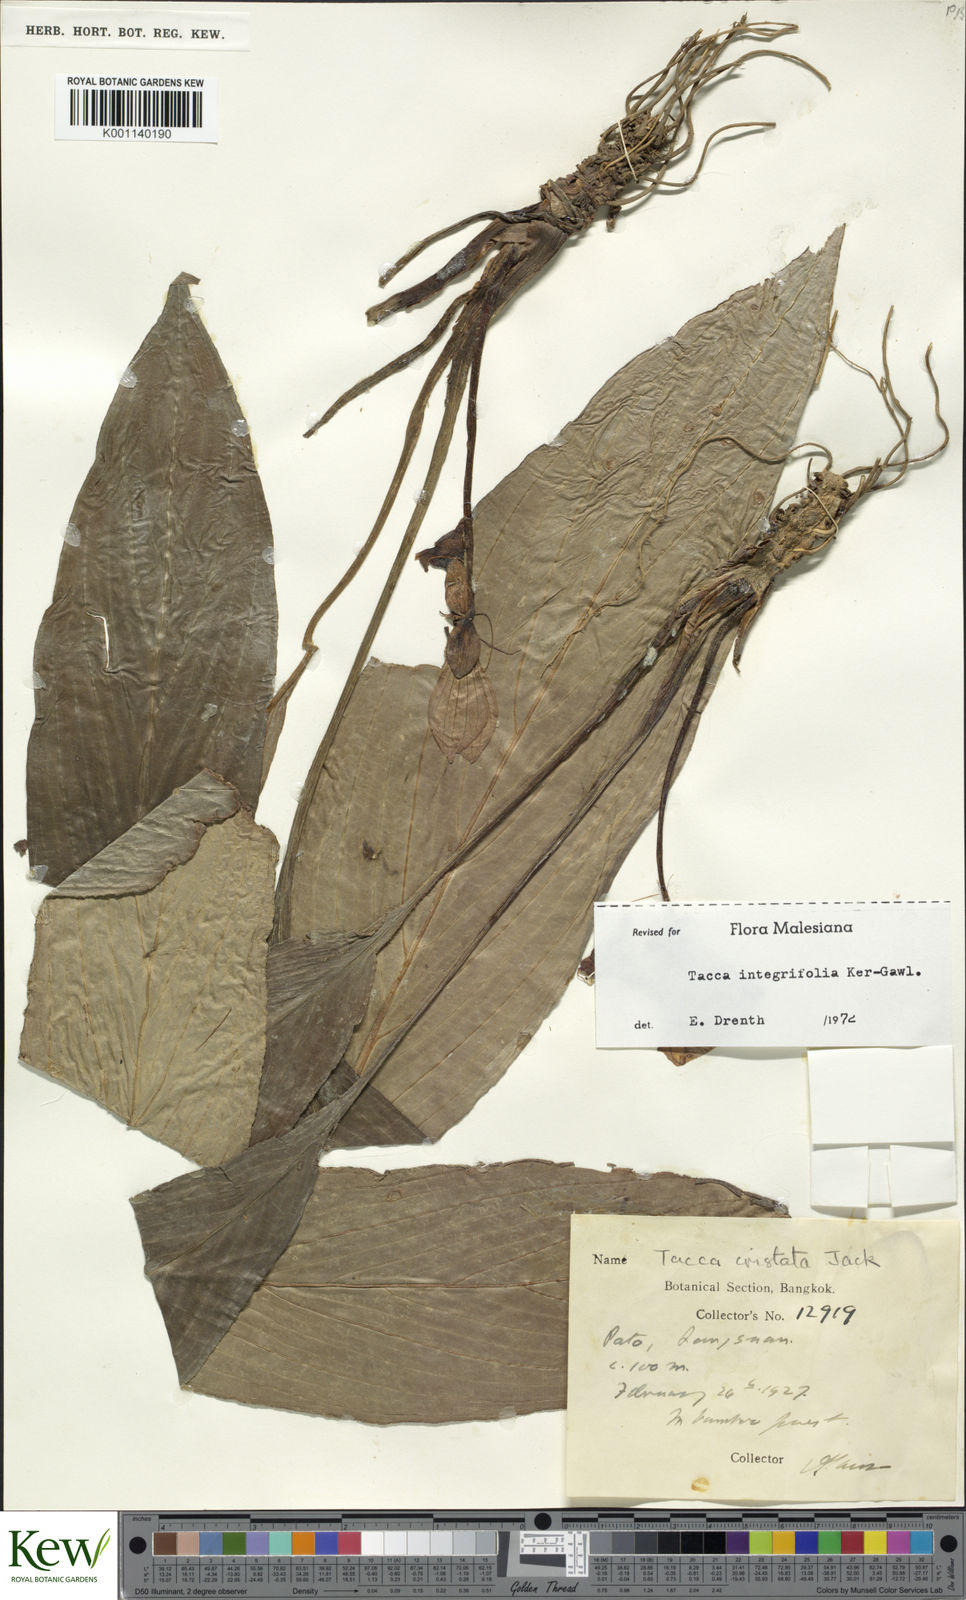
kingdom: Plantae
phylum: Tracheophyta
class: Liliopsida
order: Dioscoreales
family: Dioscoreaceae
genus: Tacca
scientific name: Tacca integrifolia
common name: Batplant
